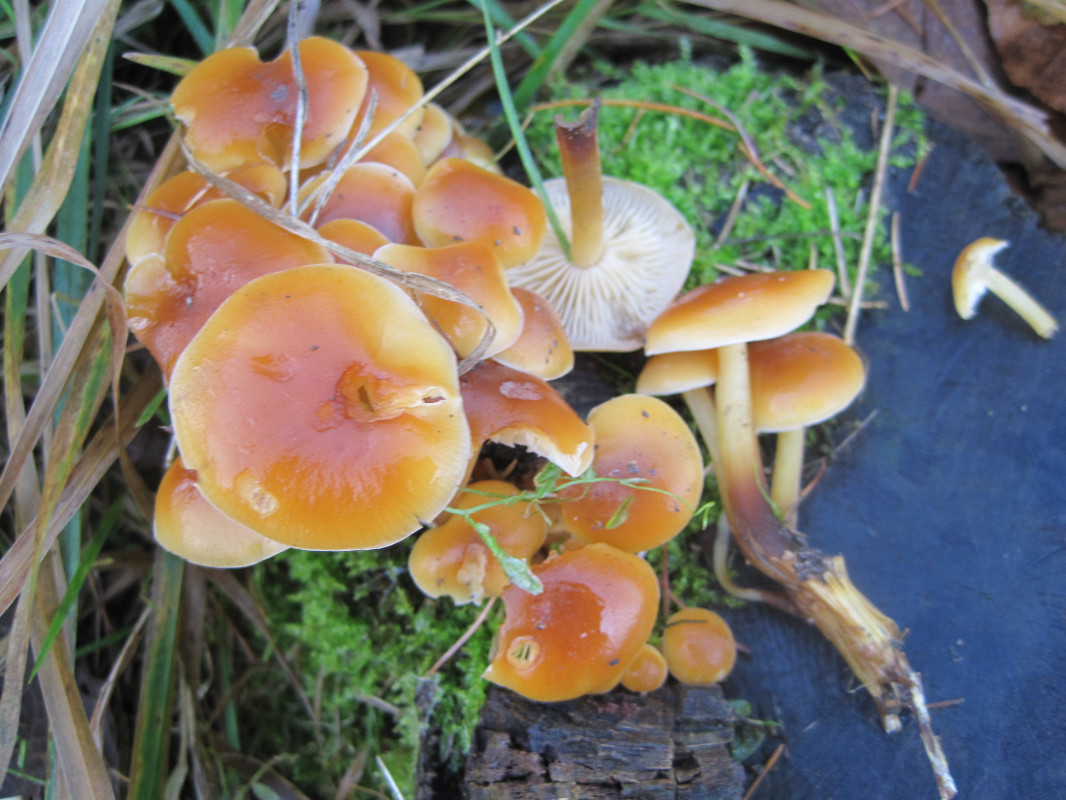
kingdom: Fungi
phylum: Basidiomycota
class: Agaricomycetes
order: Agaricales
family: Physalacriaceae
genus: Flammulina
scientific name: Flammulina velutipes
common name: gul fløjlsfod
